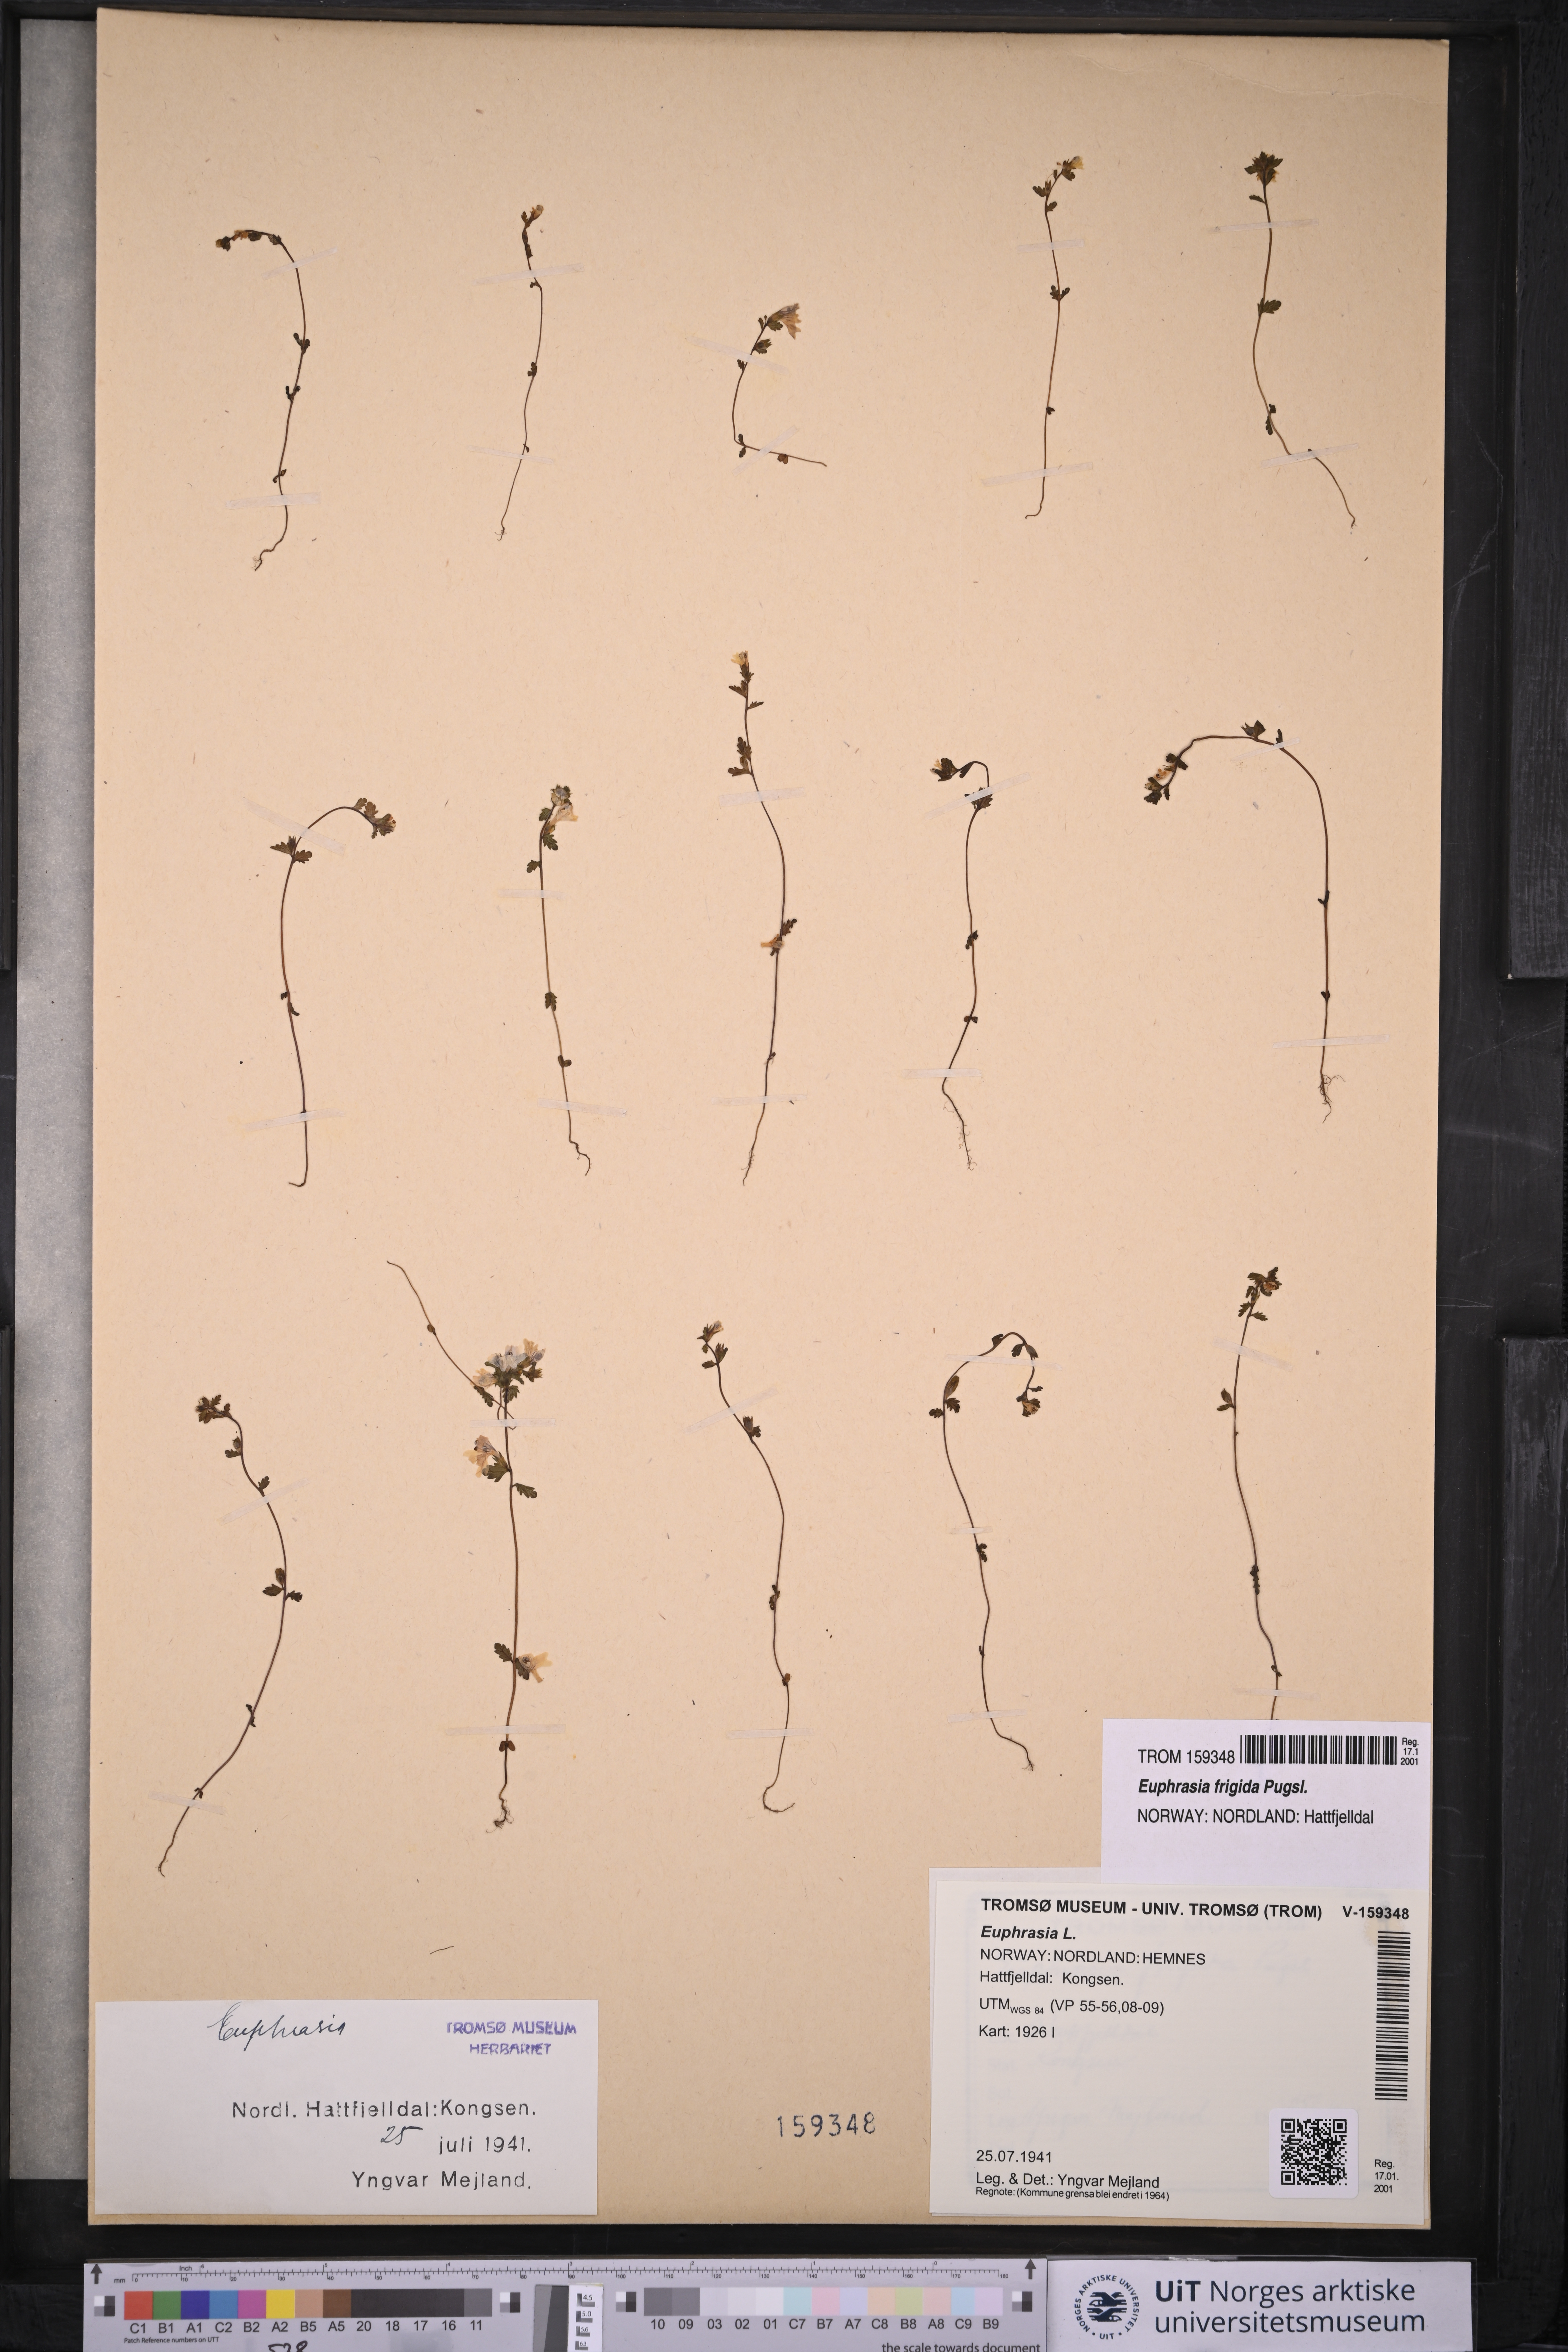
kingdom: Plantae
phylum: Tracheophyta
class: Magnoliopsida
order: Lamiales
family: Orobanchaceae
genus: Euphrasia
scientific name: Euphrasia frigida
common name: An eyebright
